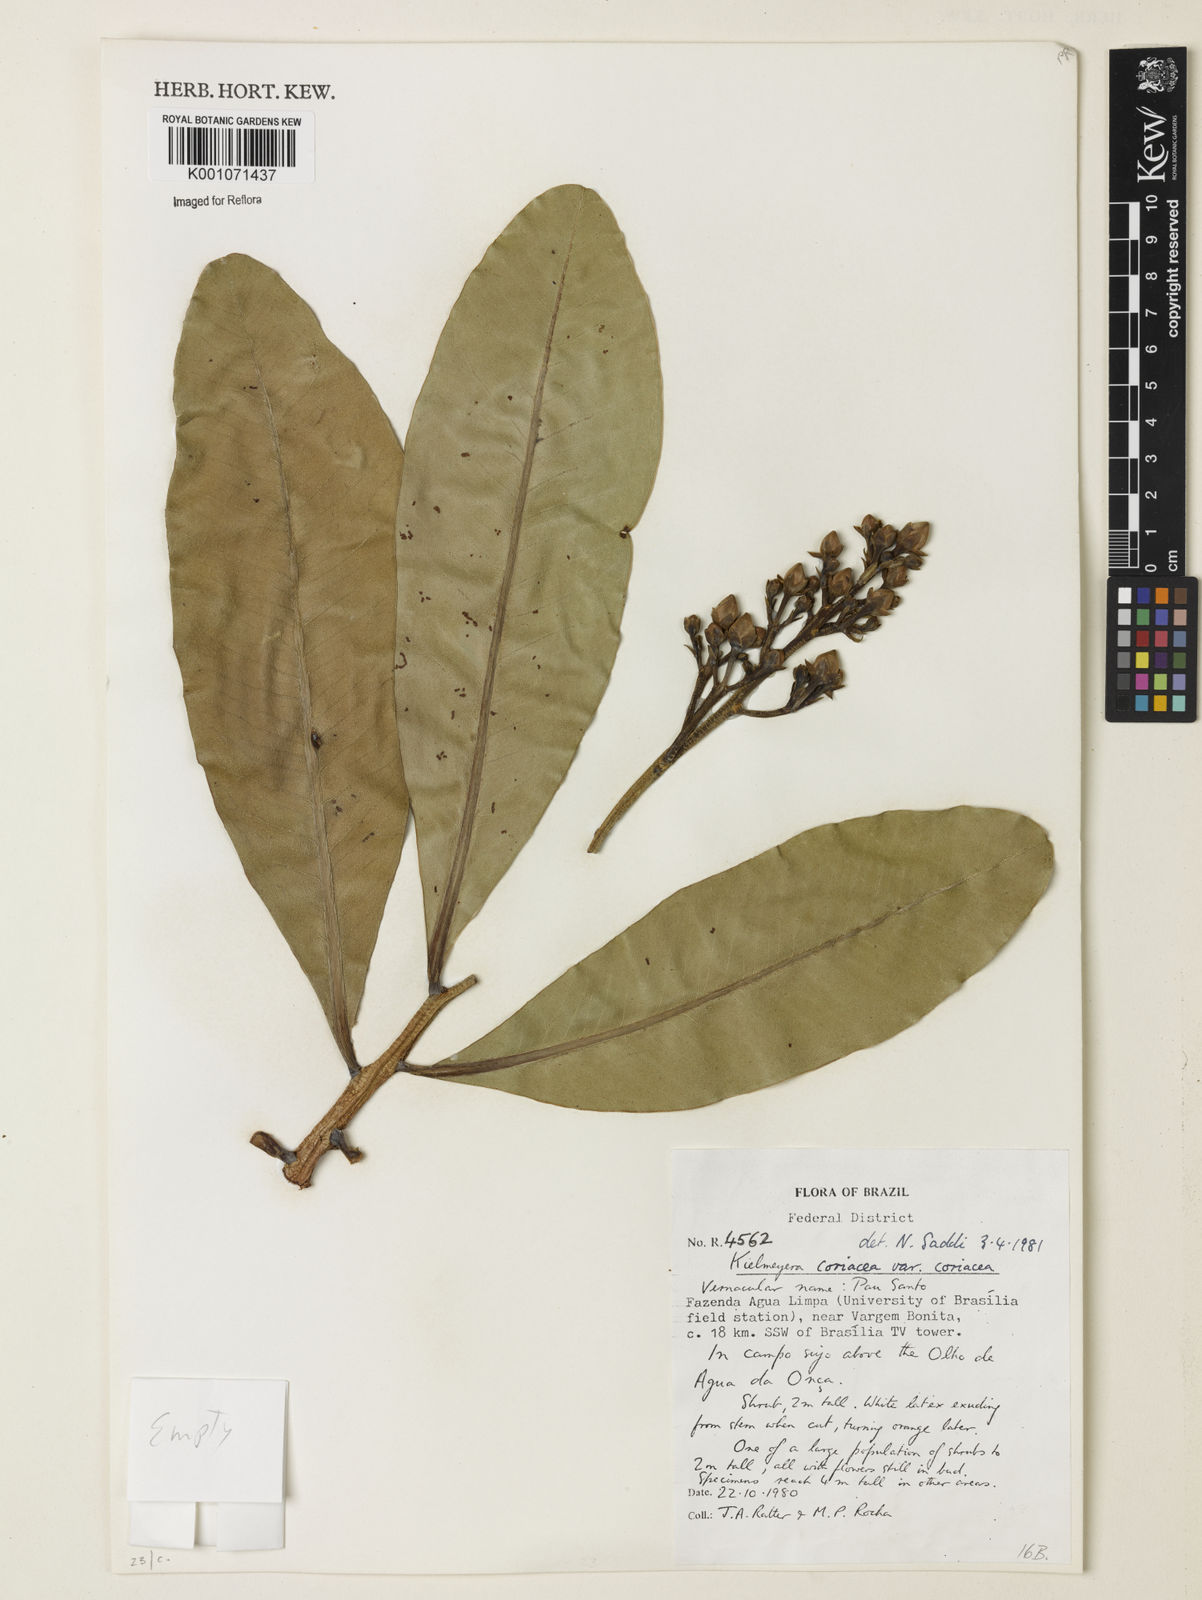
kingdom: Plantae
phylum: Tracheophyta
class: Magnoliopsida
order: Malpighiales
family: Calophyllaceae
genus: Kielmeyera
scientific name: Kielmeyera coriacea
